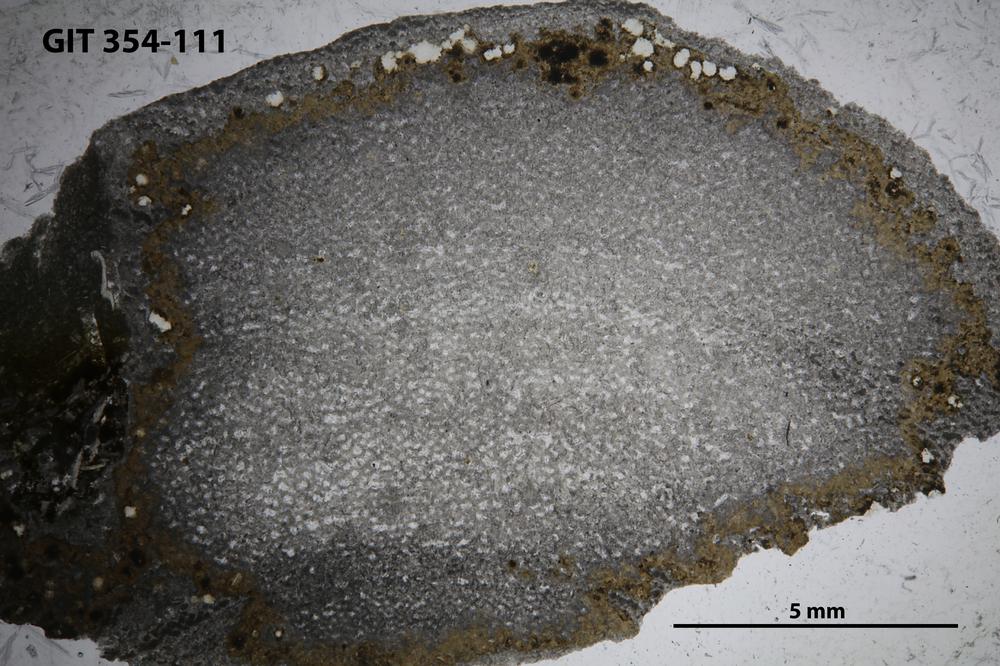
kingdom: Animalia
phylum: Porifera
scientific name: Porifera
